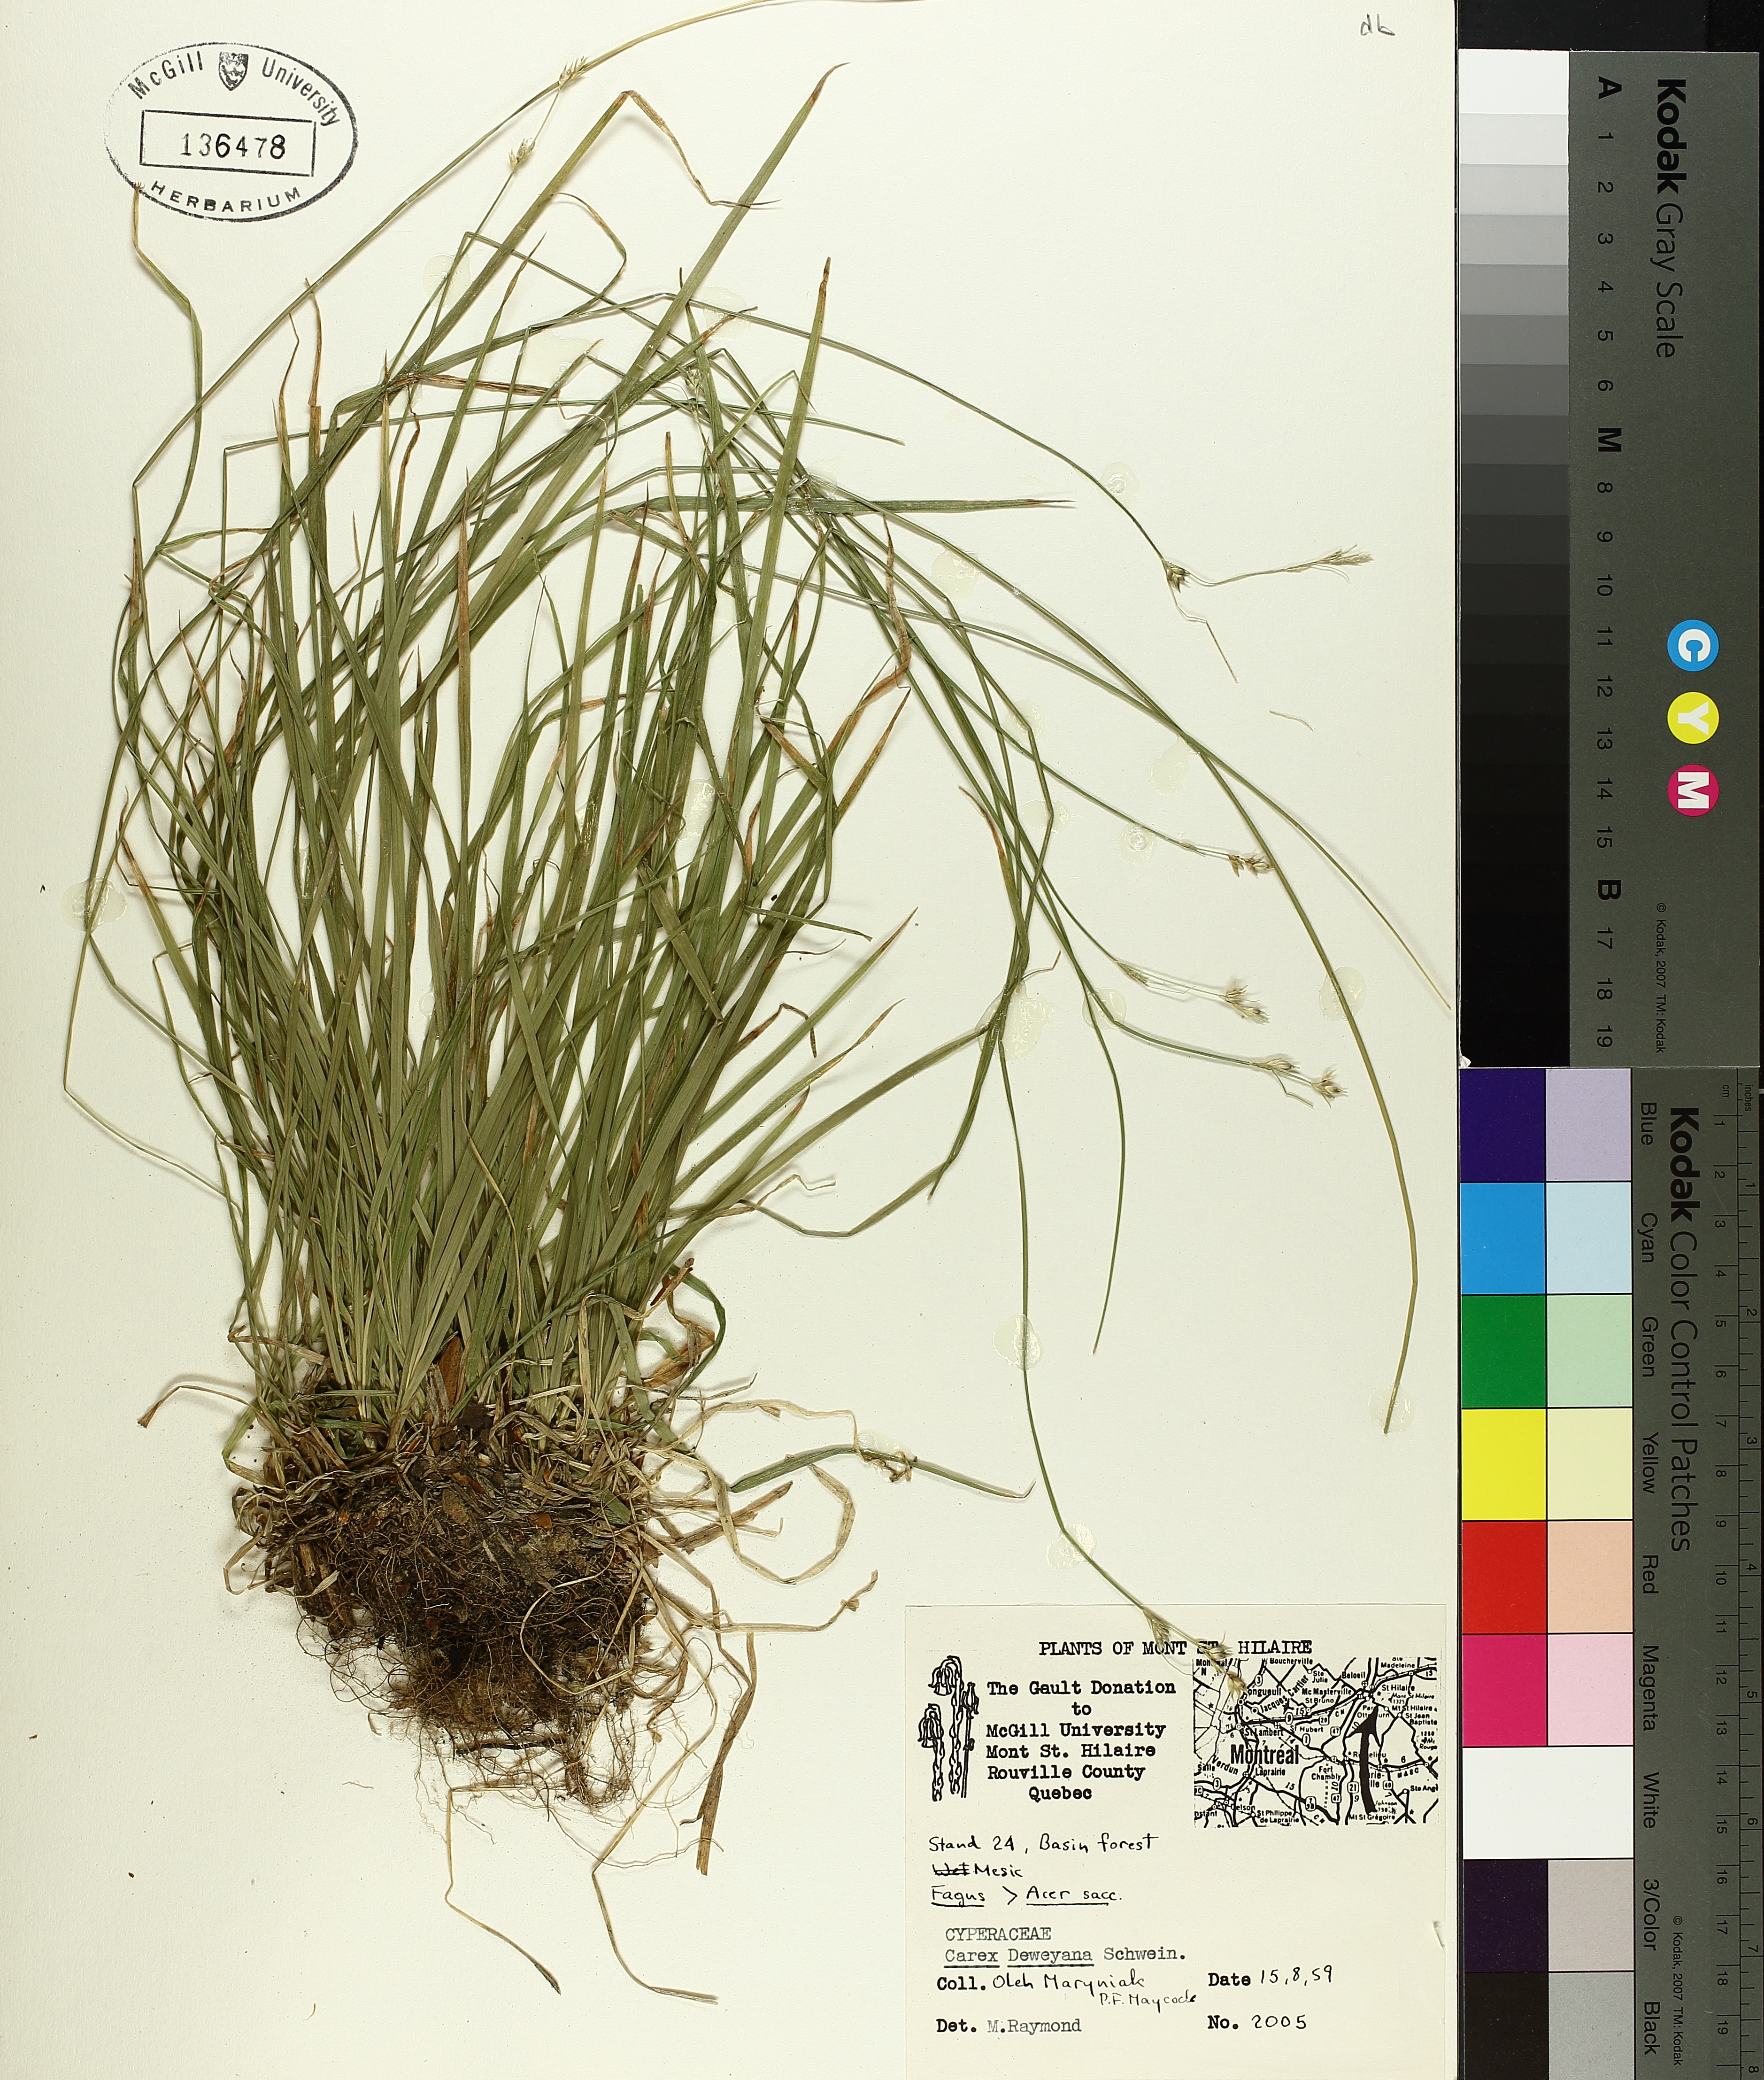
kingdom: Plantae
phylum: Tracheophyta
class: Liliopsida
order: Poales
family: Cyperaceae
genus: Carex
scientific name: Carex deweyana
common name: Dewey's sedge
